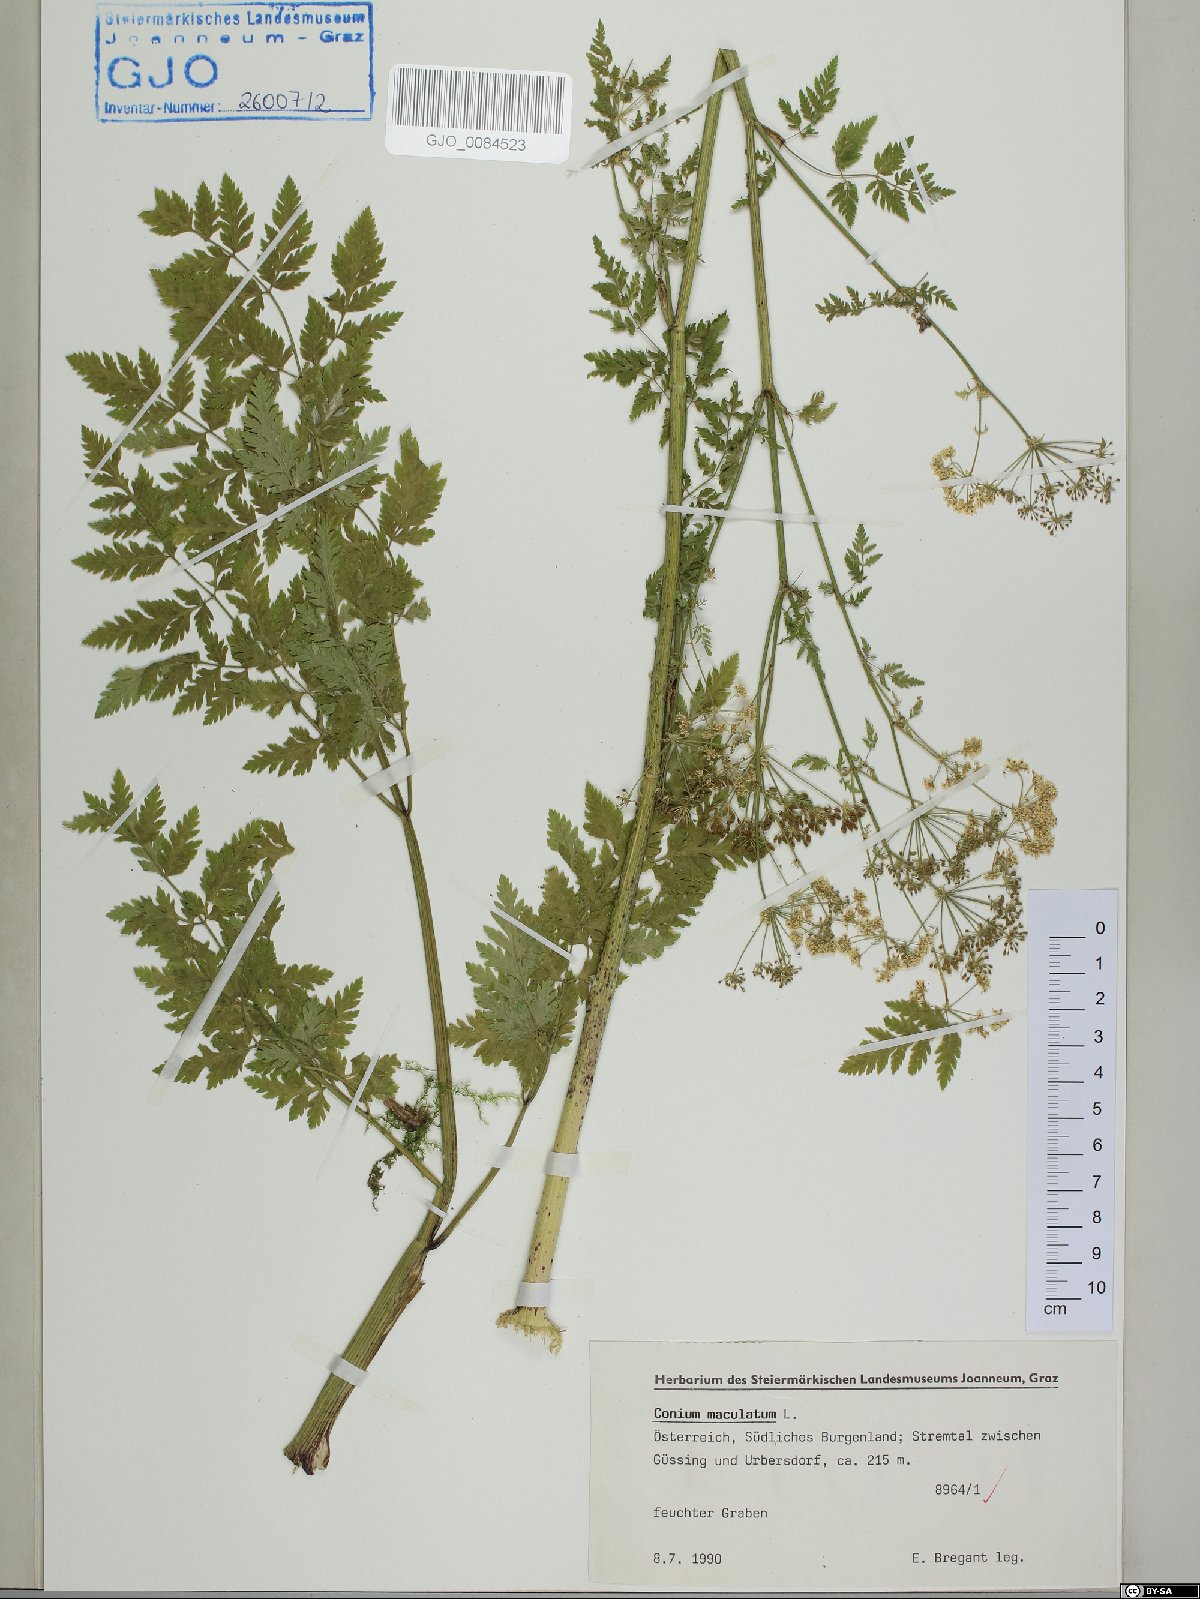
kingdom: Plantae
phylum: Tracheophyta
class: Magnoliopsida
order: Apiales
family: Apiaceae
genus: Conium
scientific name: Conium maculatum
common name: Hemlock
